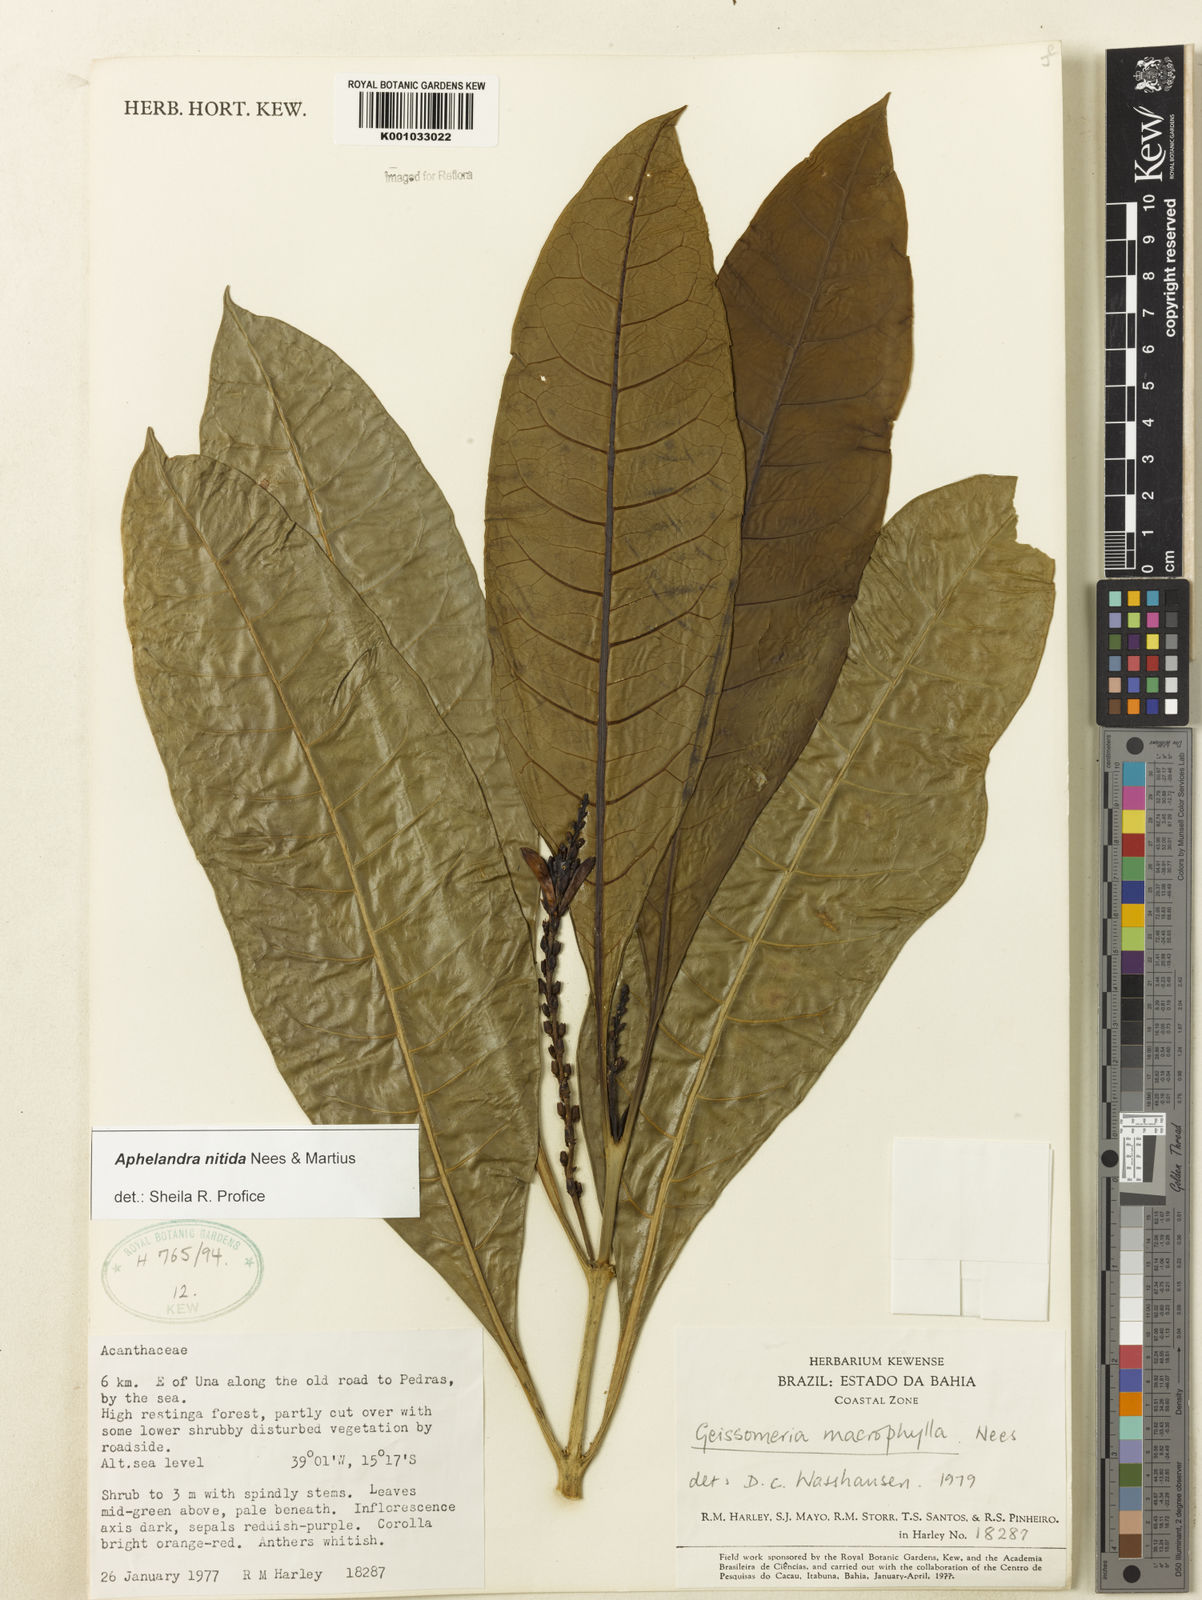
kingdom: Plantae
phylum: Tracheophyta
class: Magnoliopsida
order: Lamiales
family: Acanthaceae
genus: Aphelandra
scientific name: Aphelandra nitida
